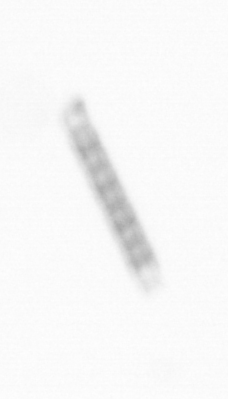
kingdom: Chromista
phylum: Ochrophyta
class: Bacillariophyceae
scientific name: Bacillariophyceae
